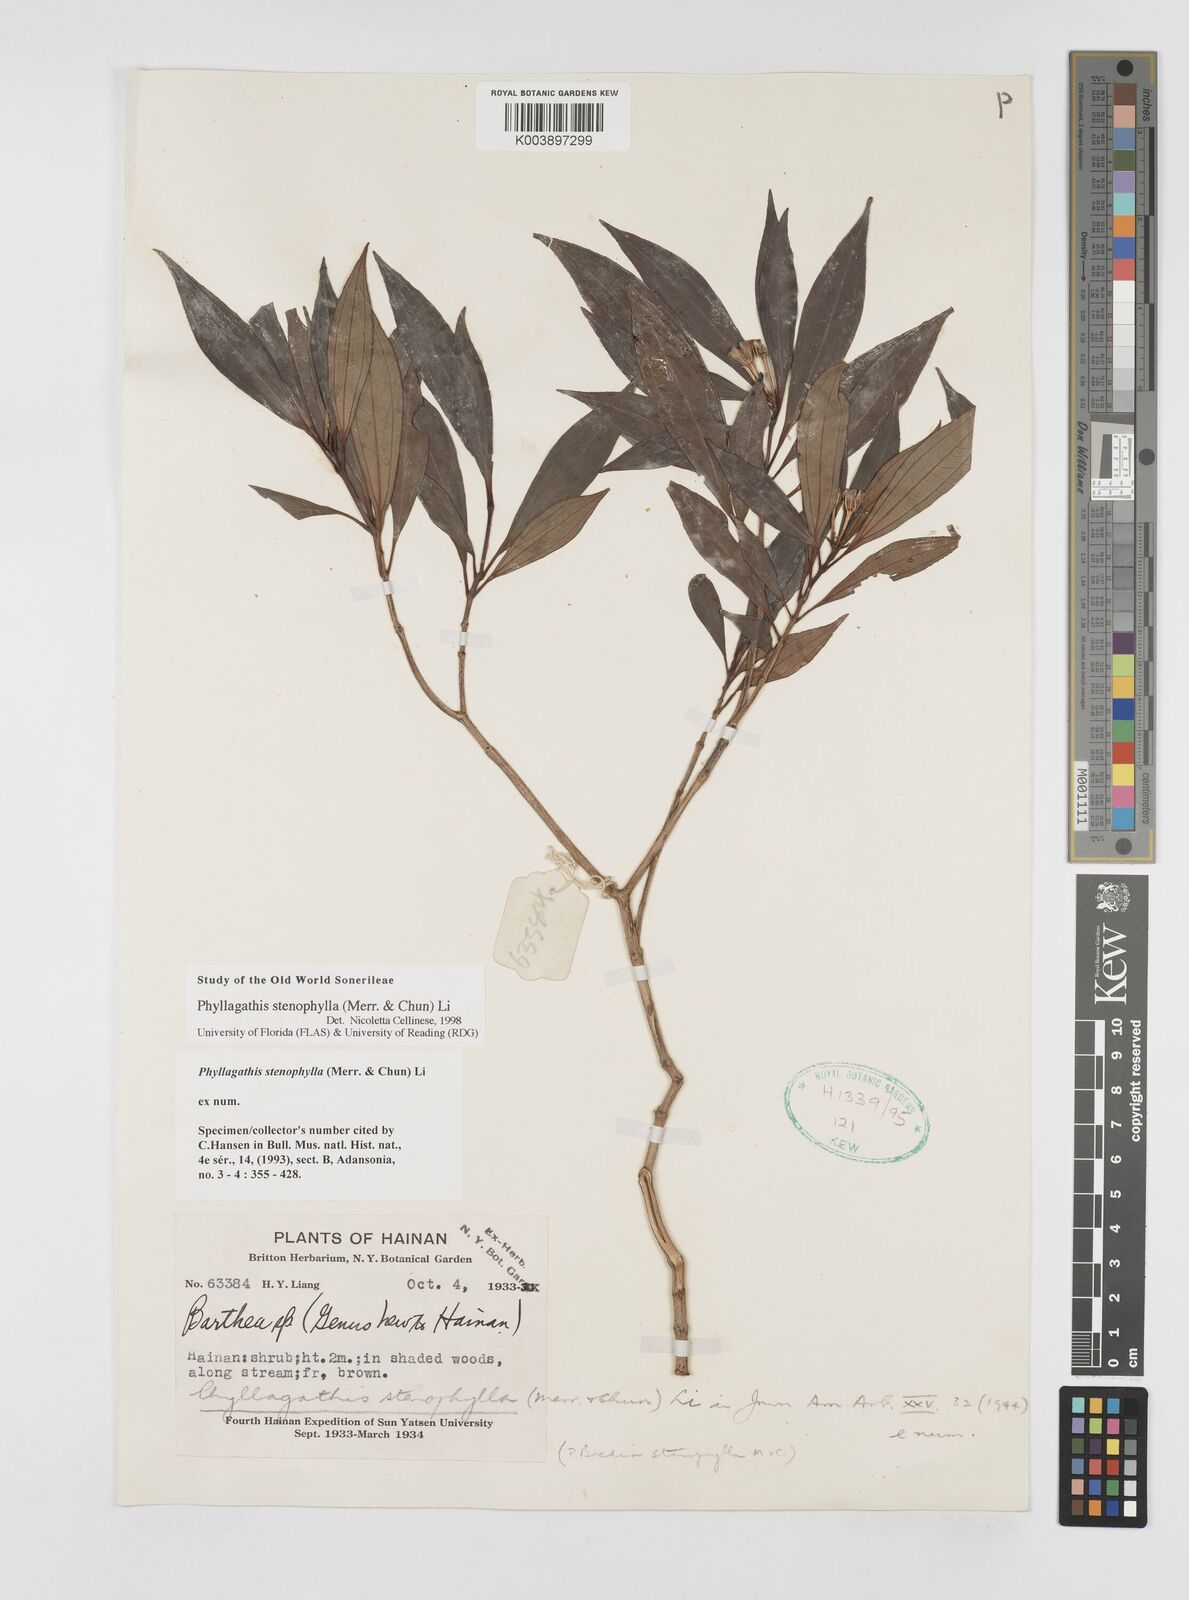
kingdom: Plantae
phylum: Tracheophyta
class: Magnoliopsida
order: Myrtales
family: Melastomataceae
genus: Phyllagathis
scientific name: Phyllagathis stenophylla
